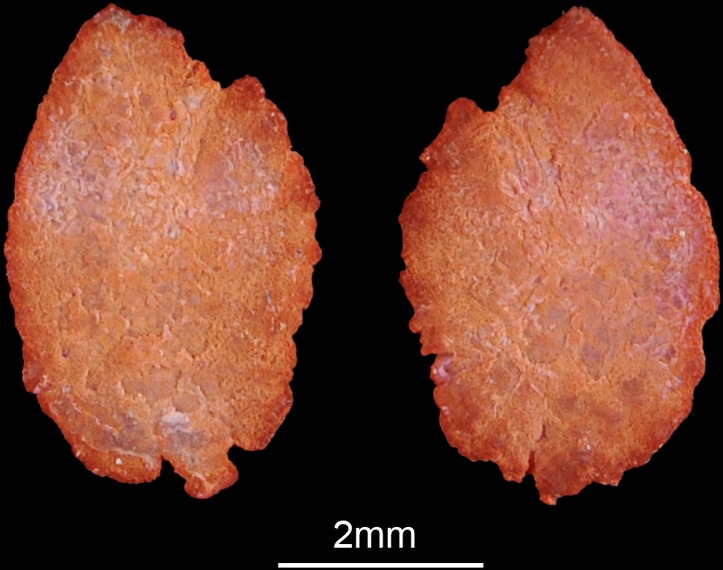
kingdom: Animalia
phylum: Chordata
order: Perciformes
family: Cichlidae
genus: Serranochromis
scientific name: Serranochromis macrocephalus
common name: Purpleface largemouth
